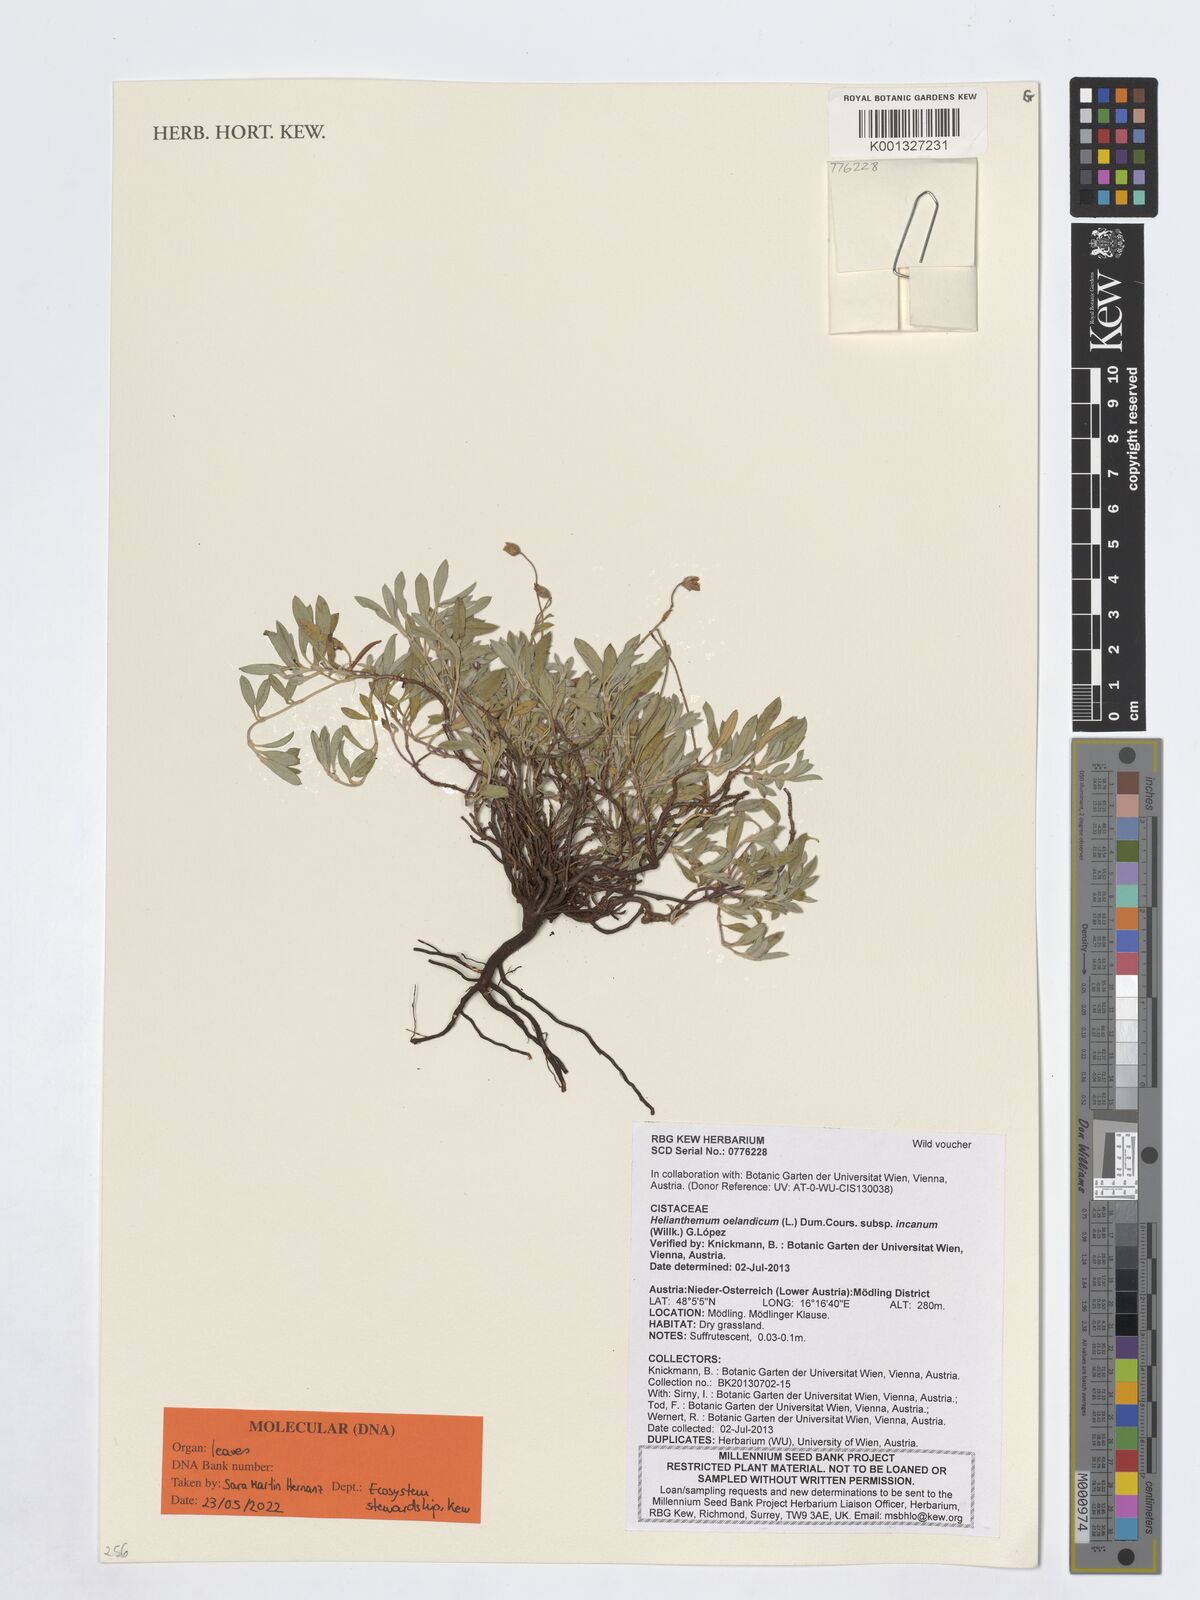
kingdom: Plantae
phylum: Tracheophyta
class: Magnoliopsida
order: Malvales
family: Cistaceae
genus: Helianthemum
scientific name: Helianthemum canum
